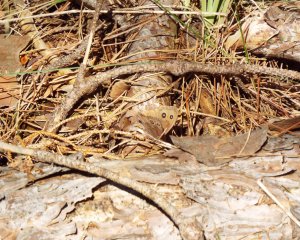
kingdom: Animalia
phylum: Arthropoda
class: Insecta
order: Lepidoptera
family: Nymphalidae
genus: Cercyonis
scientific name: Cercyonis pegala
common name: Common Wood-Nymph
